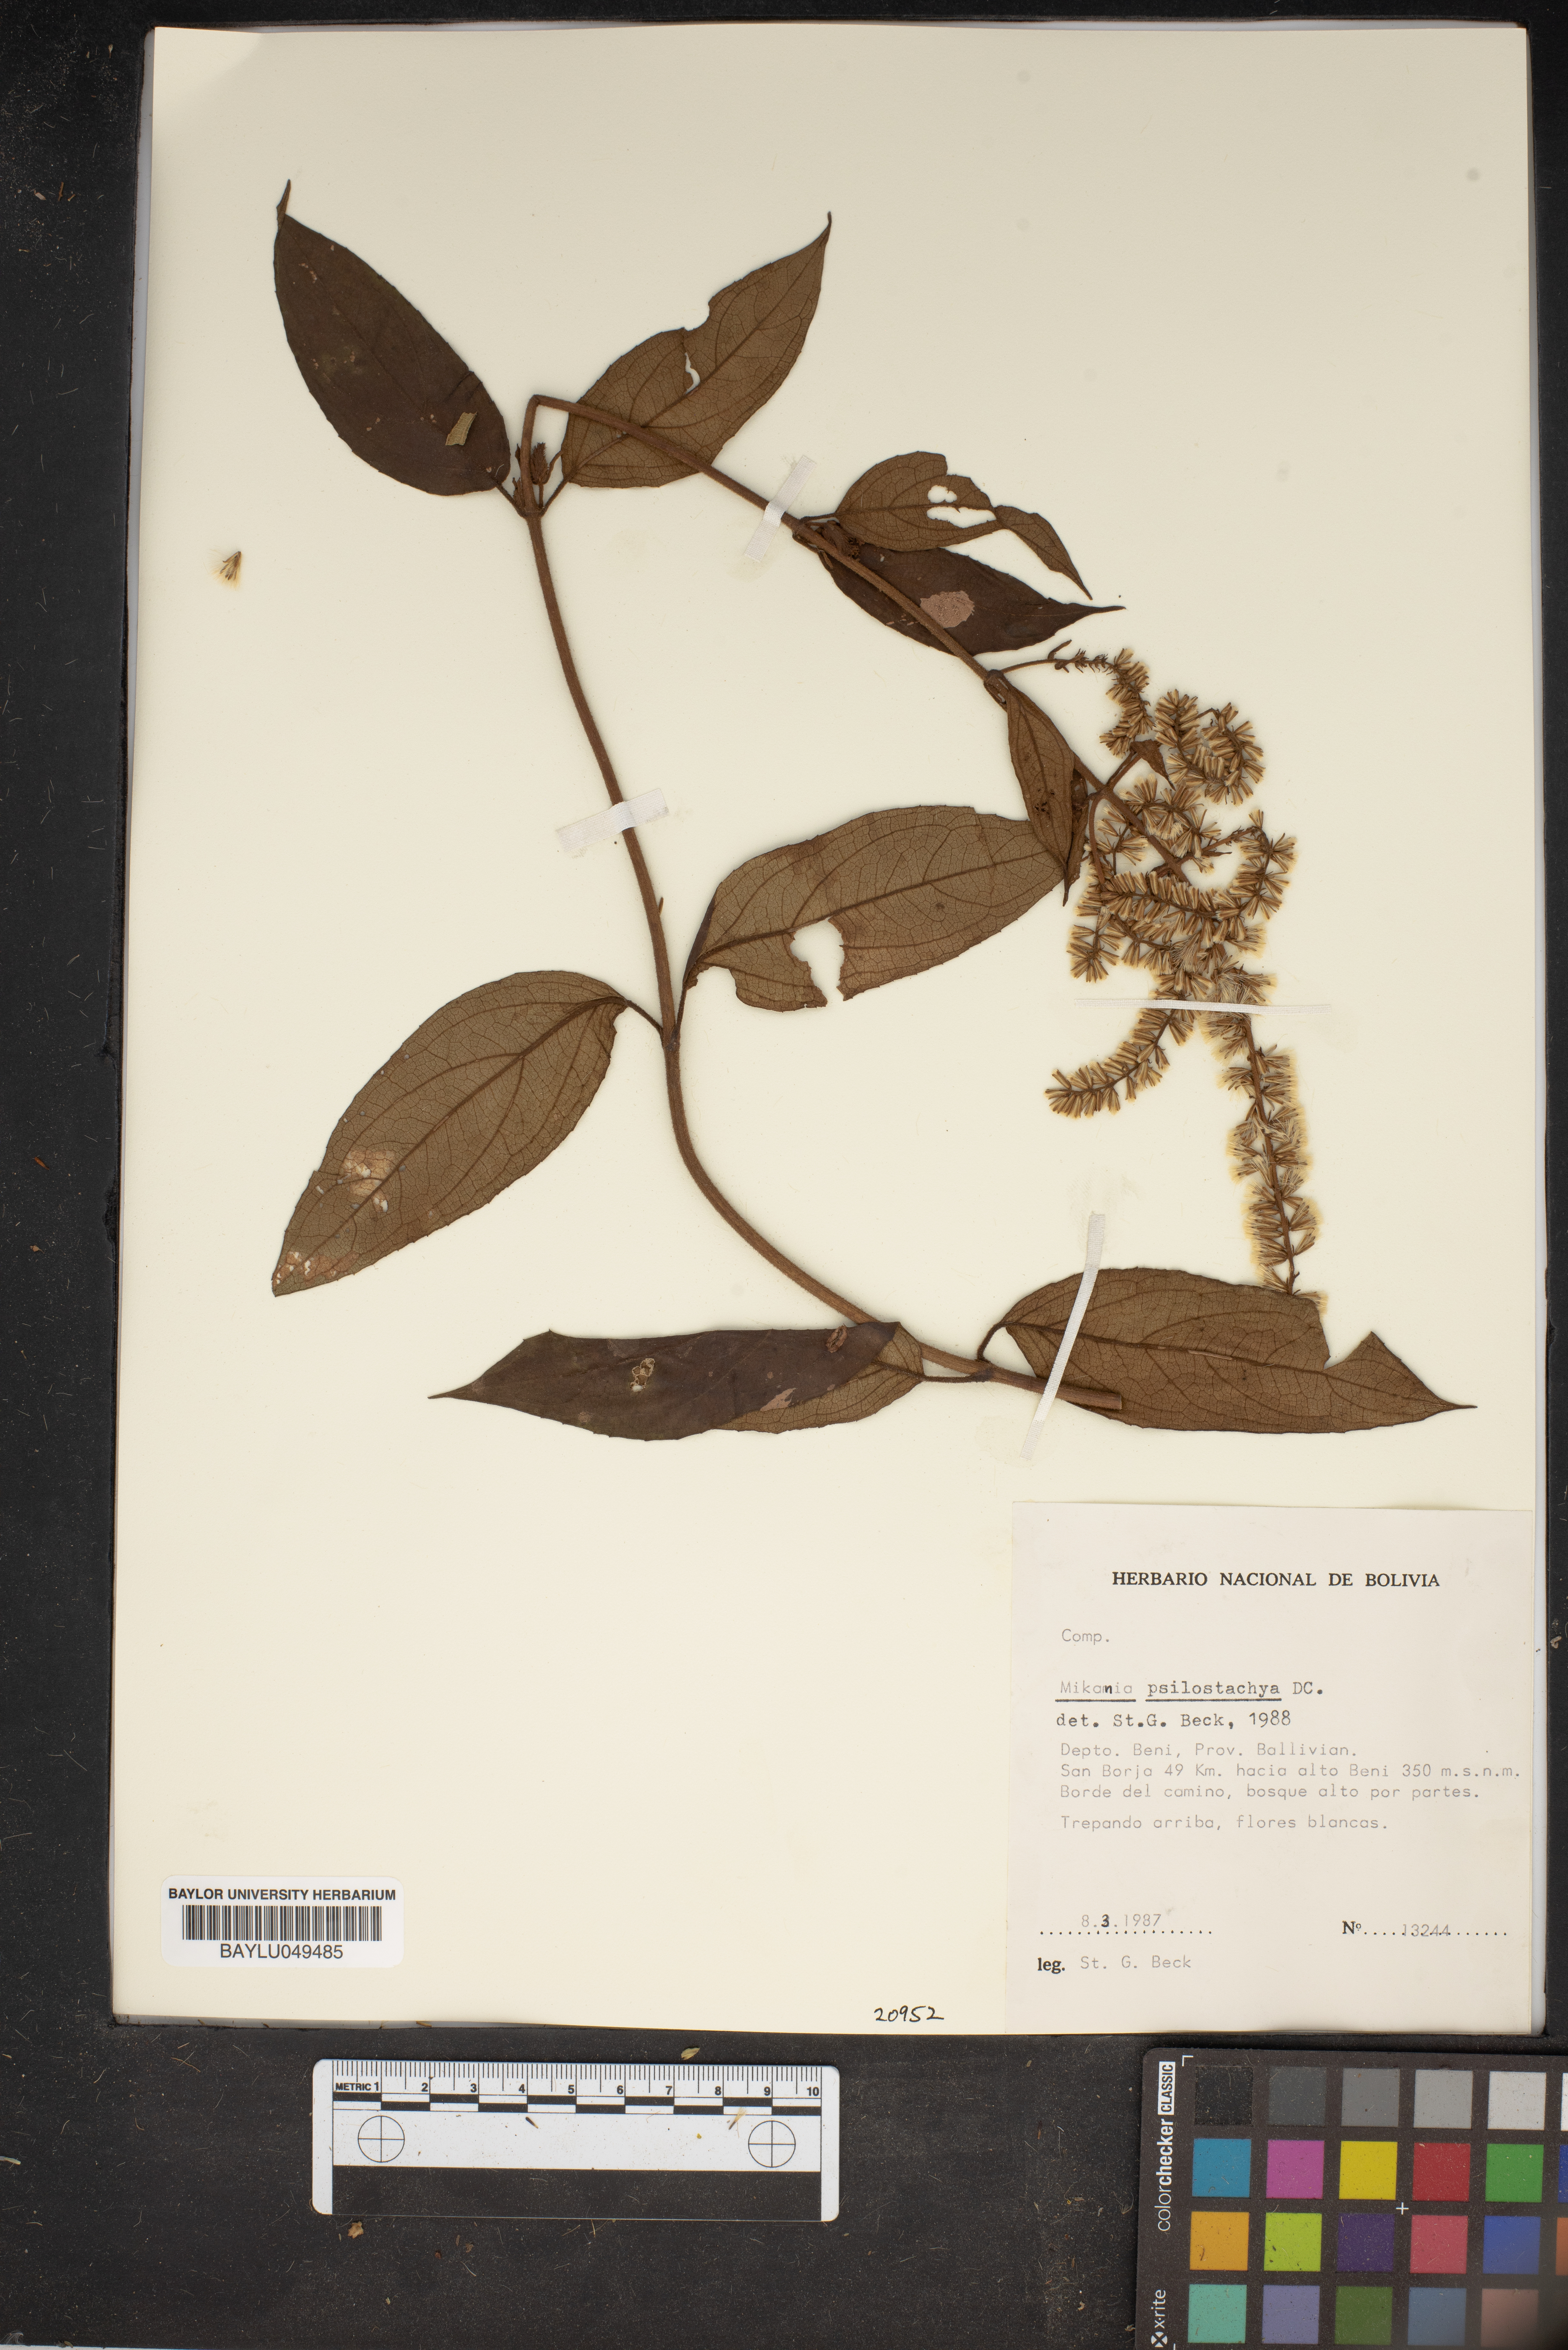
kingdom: Plantae
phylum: Tracheophyta
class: Magnoliopsida
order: Asterales
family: Asteraceae
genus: Mikania
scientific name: Mikania psilostachya
